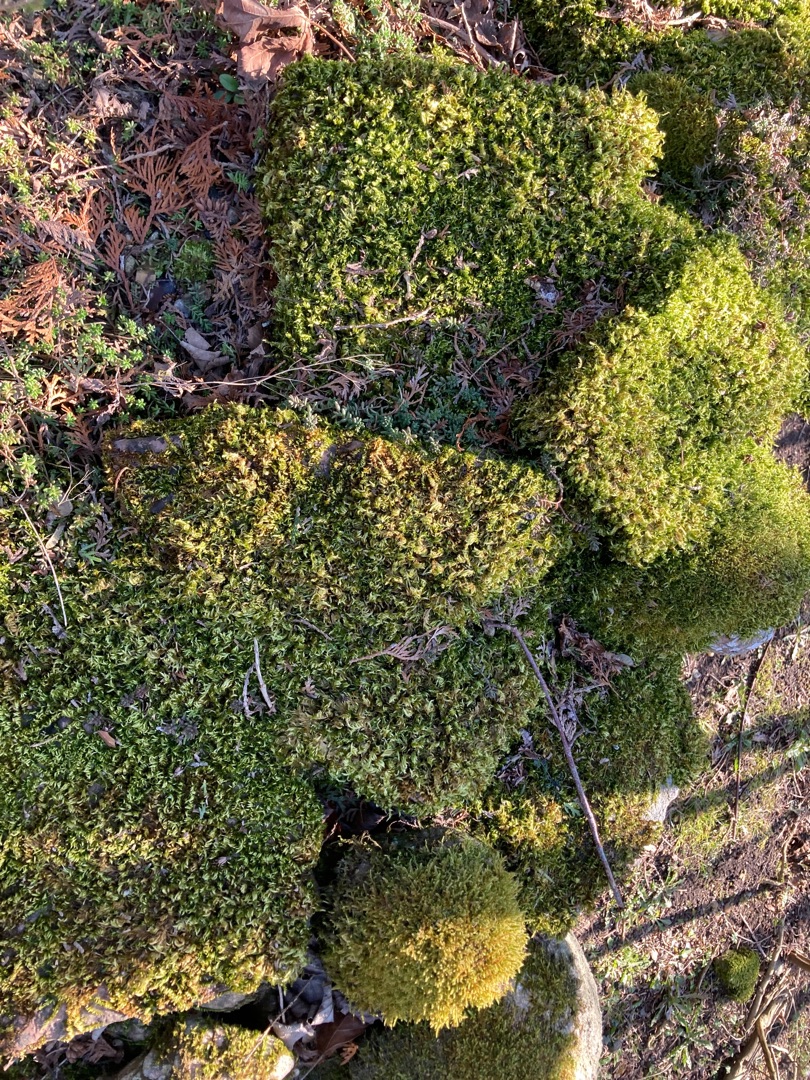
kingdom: Plantae
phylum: Bryophyta
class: Bryopsida
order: Hypnales
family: Brachytheciaceae
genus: Homalothecium
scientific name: Homalothecium sericeum
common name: Krybende silkemos
